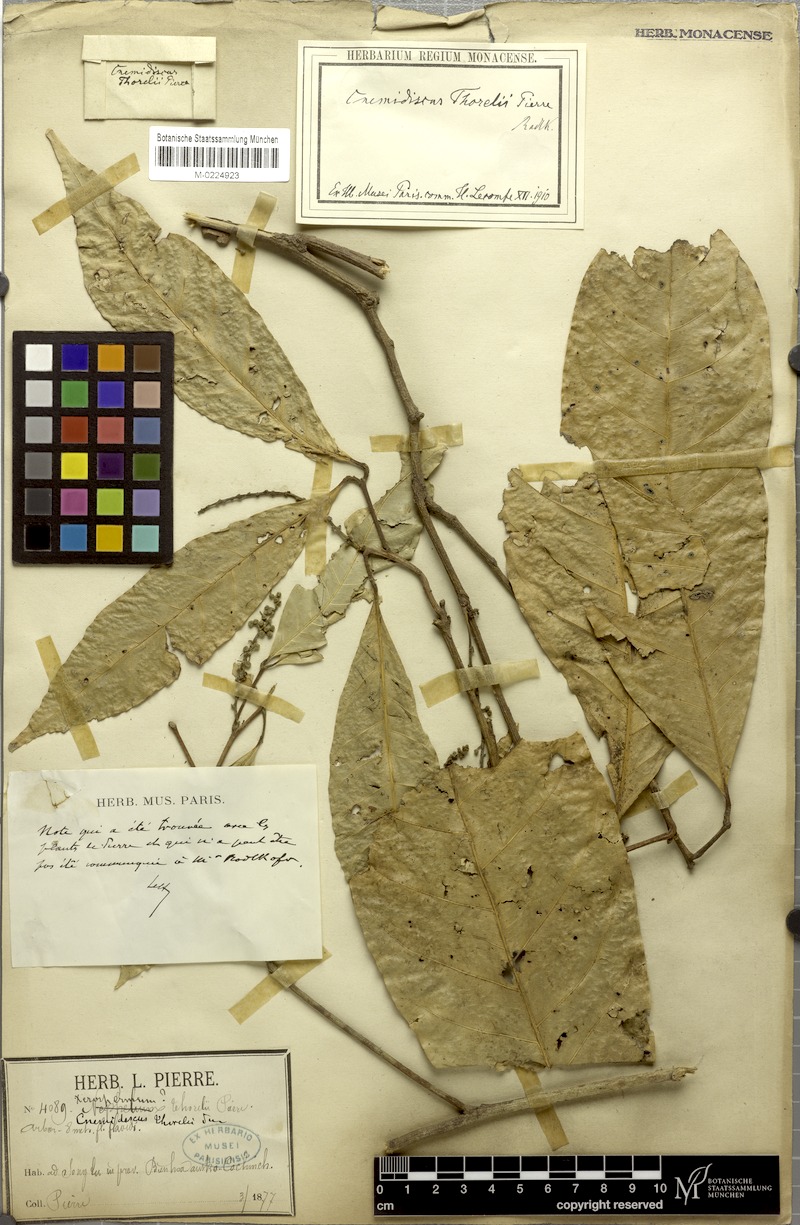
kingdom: Plantae
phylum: Tracheophyta
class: Magnoliopsida
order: Sapindales
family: Sapindaceae
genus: Glenniea
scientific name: Glenniea thorelii
